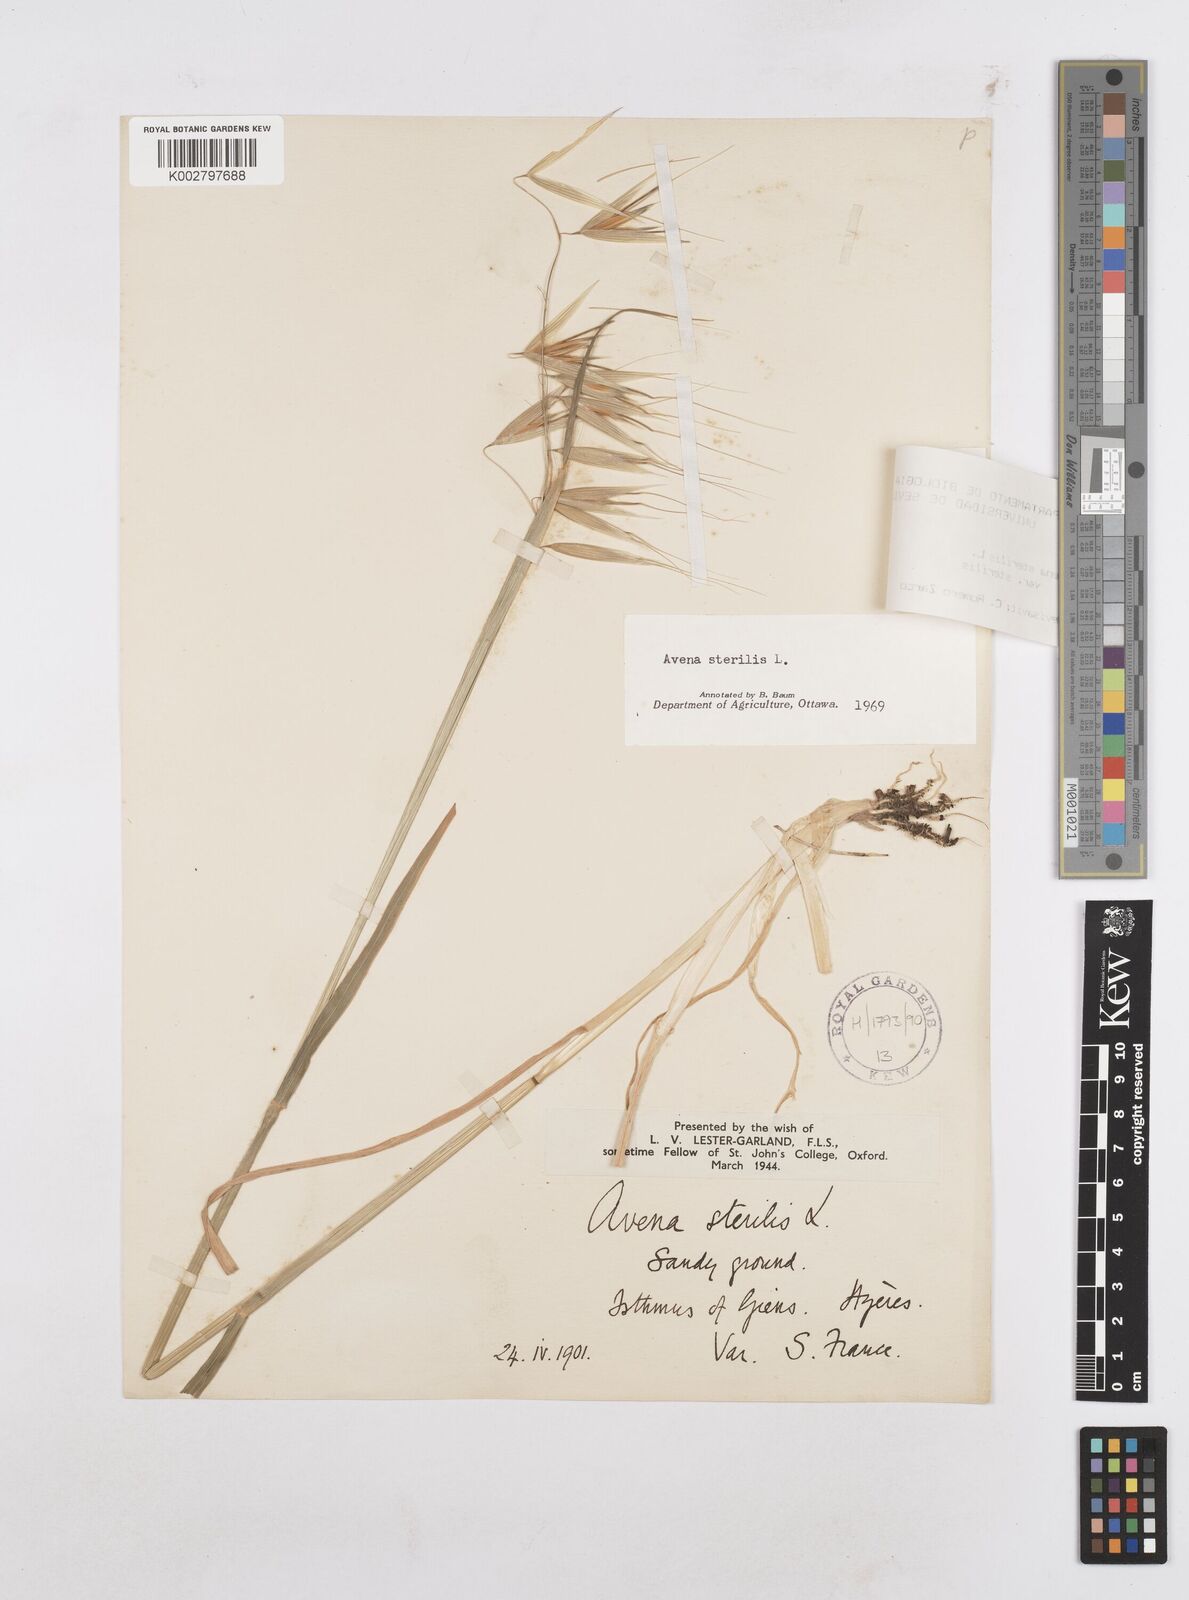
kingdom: Plantae
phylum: Tracheophyta
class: Liliopsida
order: Poales
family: Poaceae
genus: Avena
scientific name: Avena sterilis
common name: Animated oat
